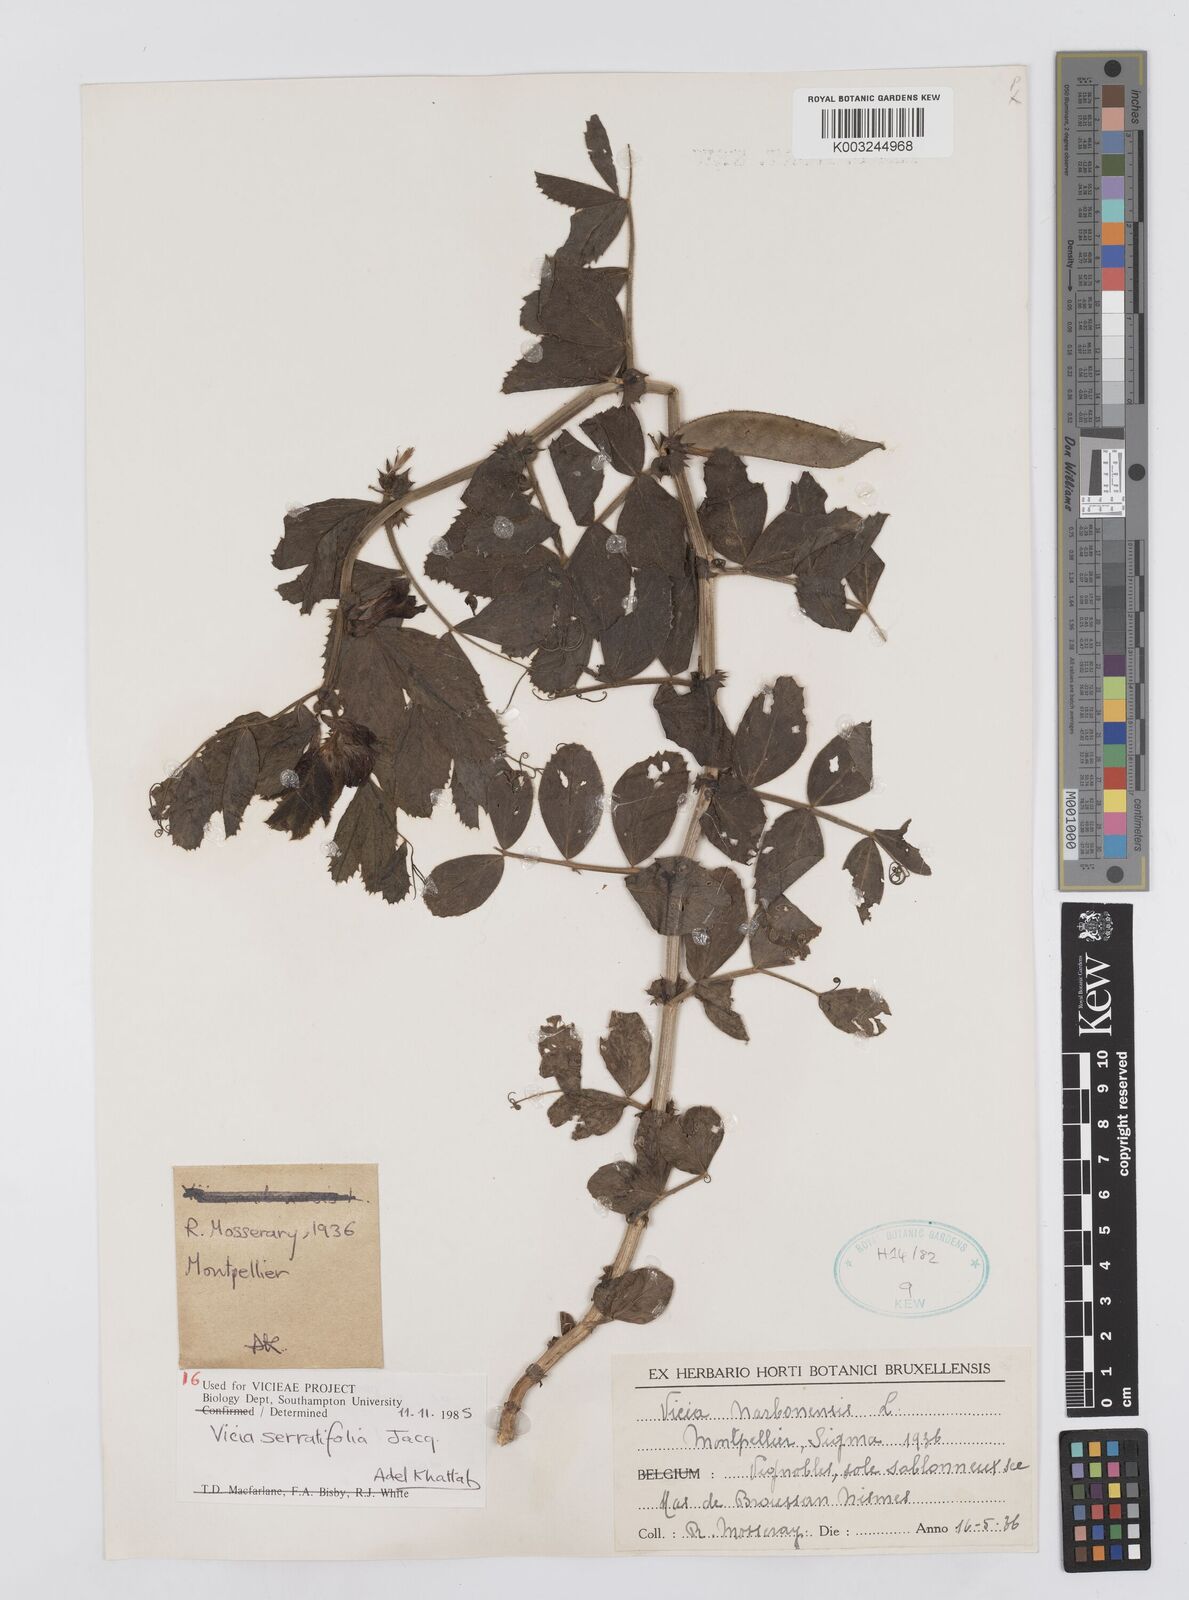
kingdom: Plantae
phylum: Tracheophyta
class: Magnoliopsida
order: Fabales
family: Fabaceae
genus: Vicia
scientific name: Vicia serratifolia
